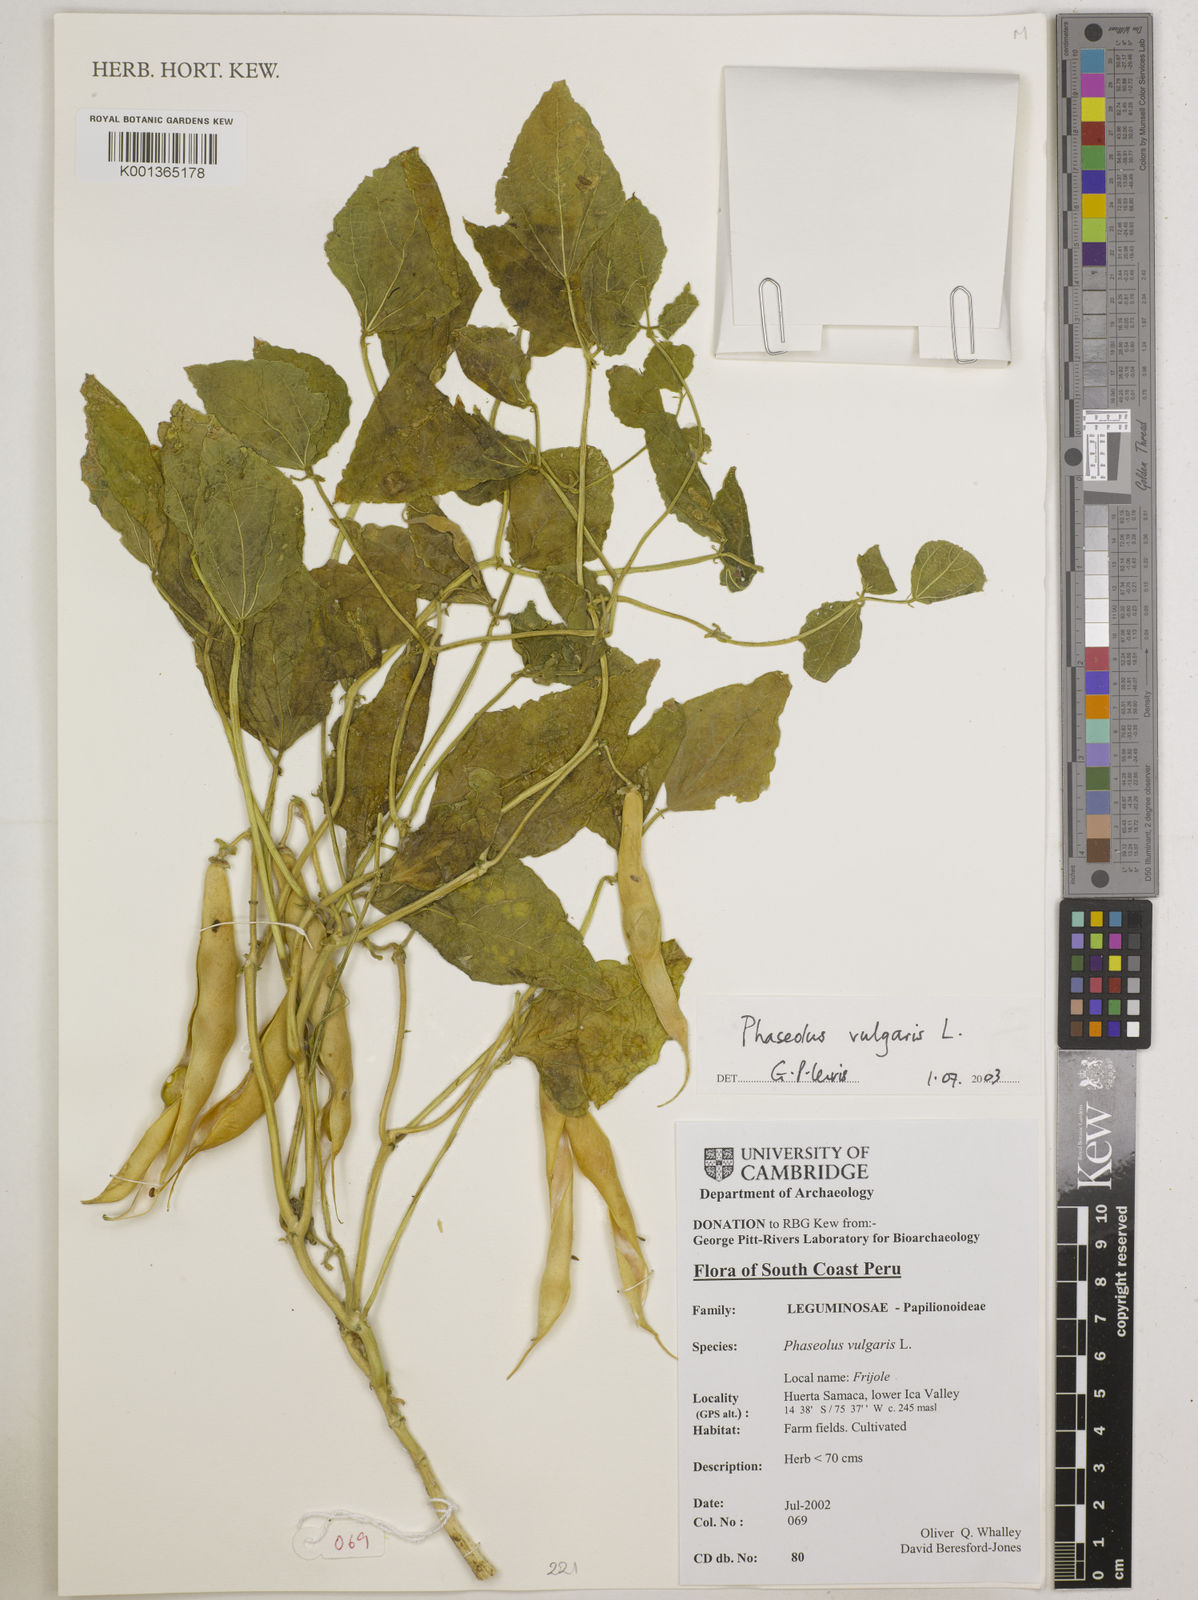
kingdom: Plantae
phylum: Tracheophyta
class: Magnoliopsida
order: Fabales
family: Fabaceae
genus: Phaseolus
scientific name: Phaseolus vulgaris
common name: Bean
